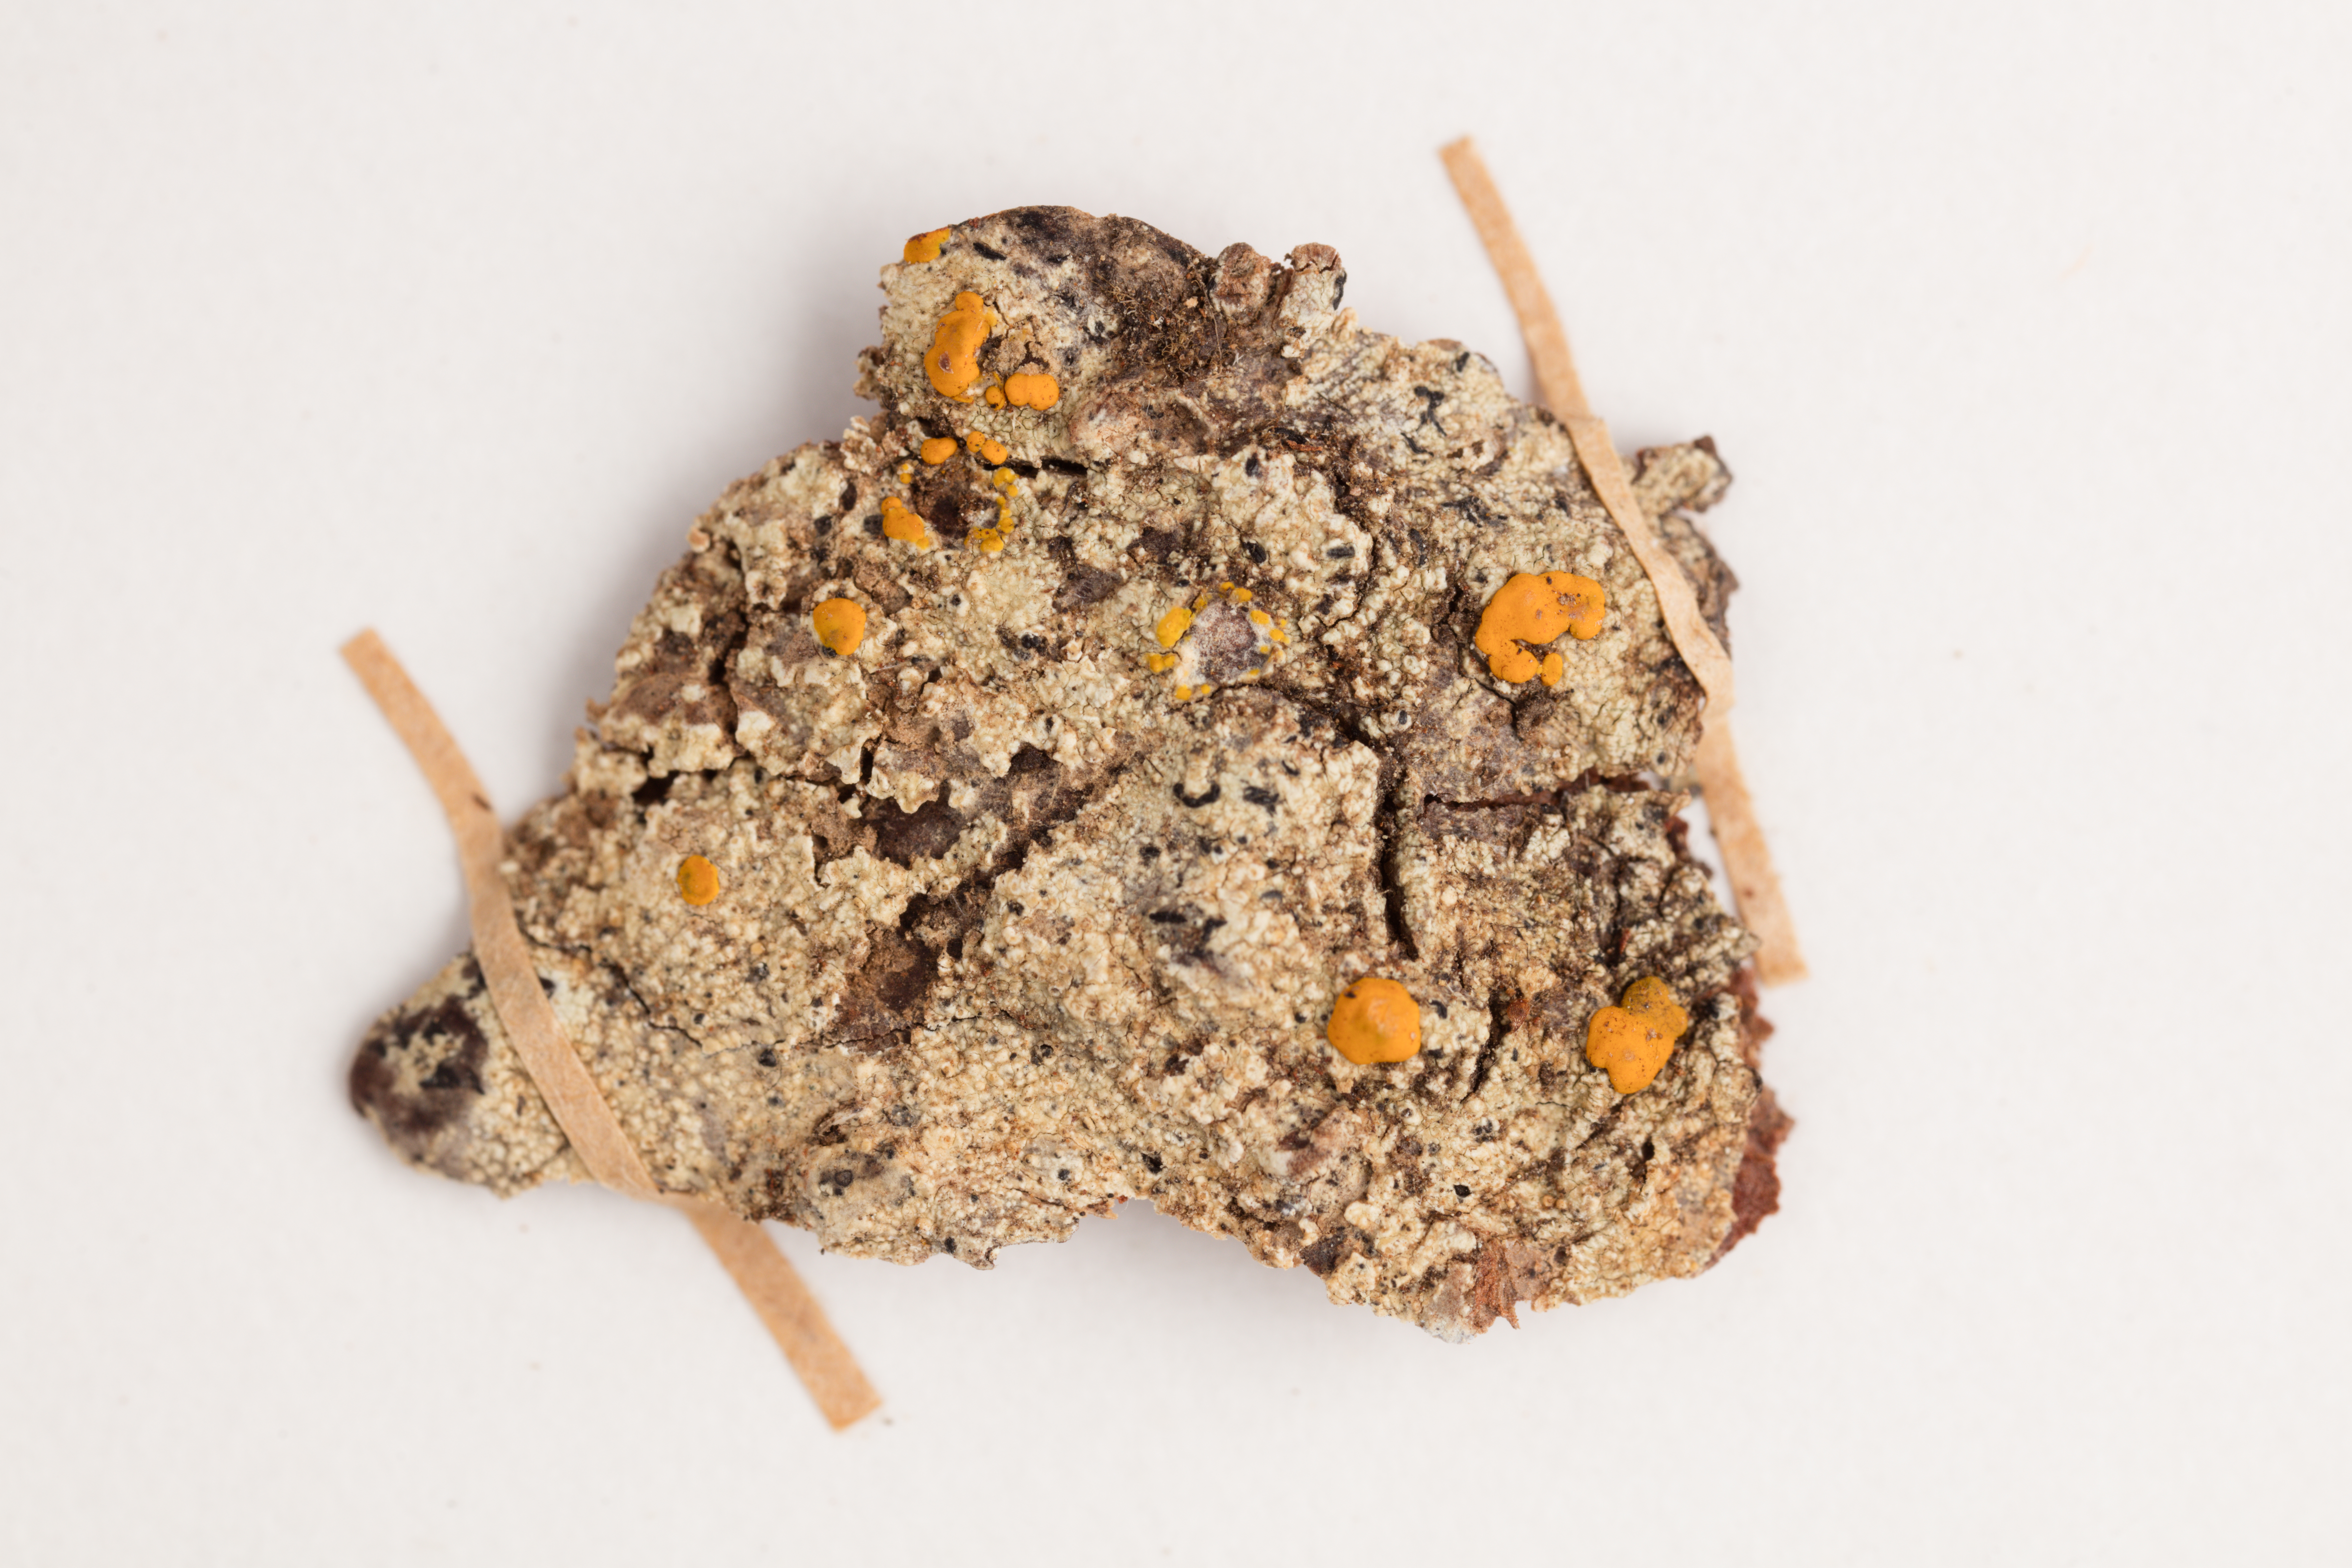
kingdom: Fungi
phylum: Ascomycota
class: Lecanoromycetes
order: Lecanorales
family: Ramalinaceae
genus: Stirtoniella
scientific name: Stirtoniella kelica
